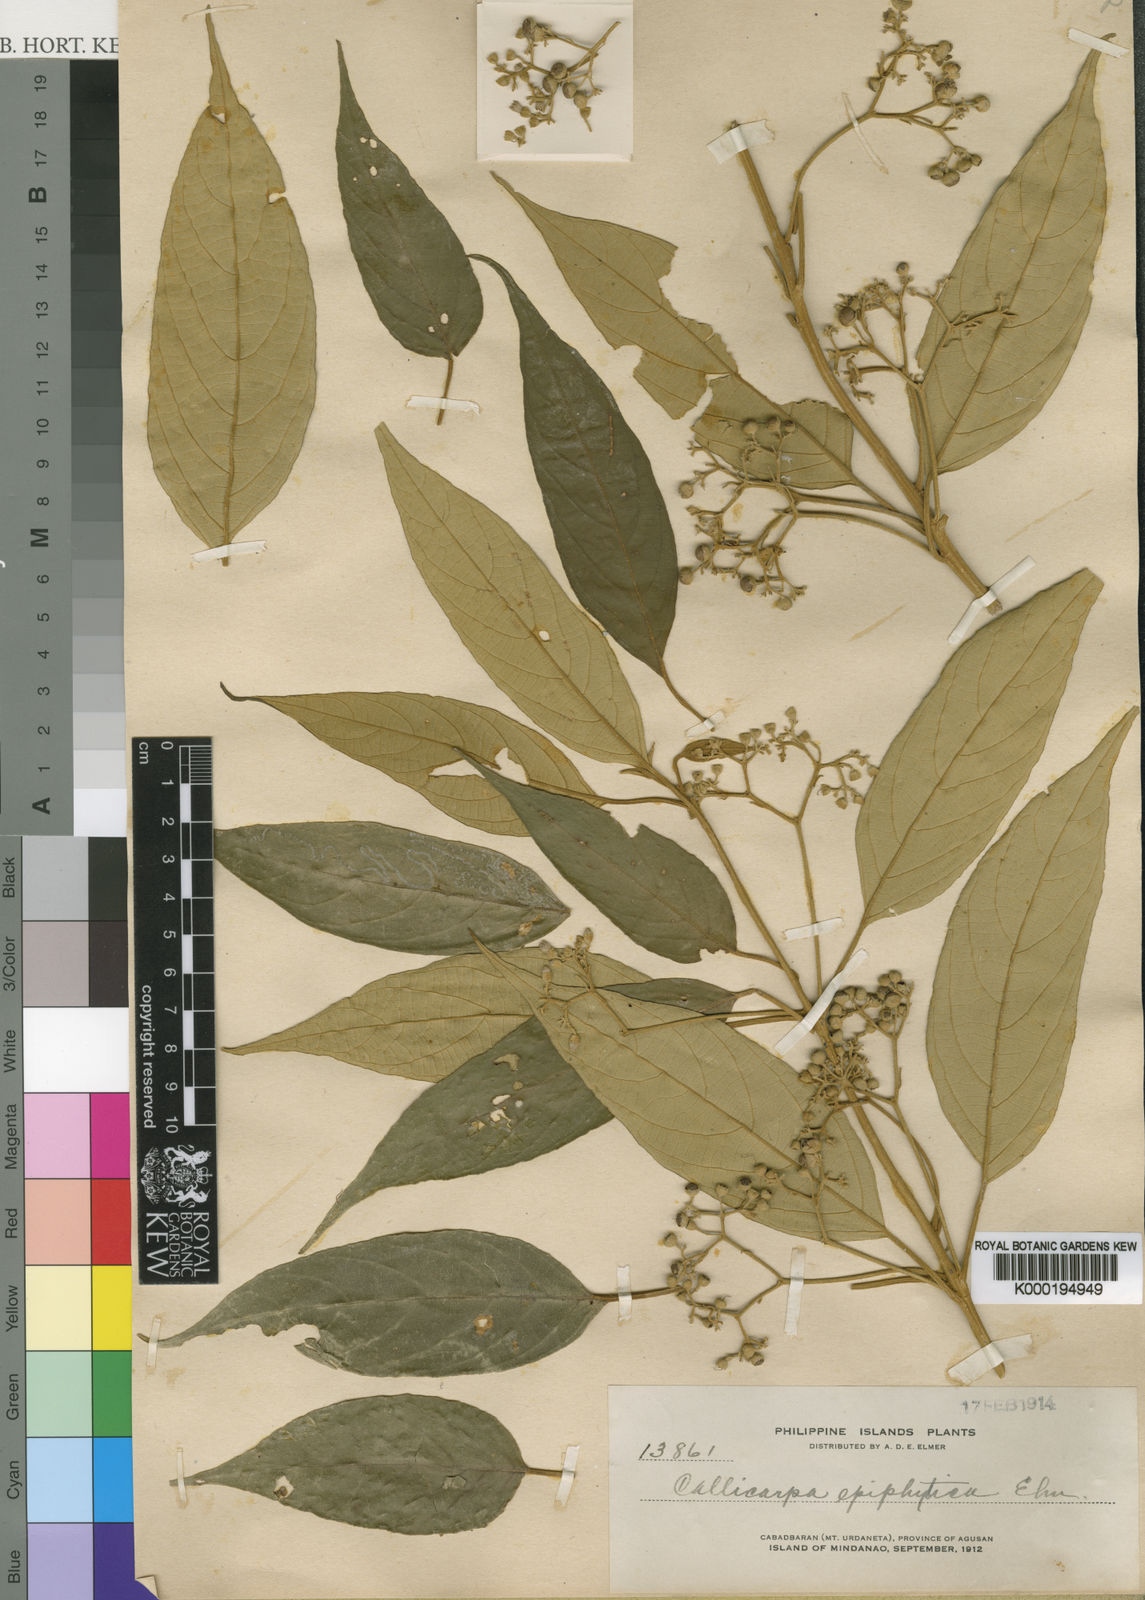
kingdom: Plantae
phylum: Tracheophyta
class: Magnoliopsida
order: Lamiales
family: Lamiaceae
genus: Callicarpa
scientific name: Callicarpa pentandra
